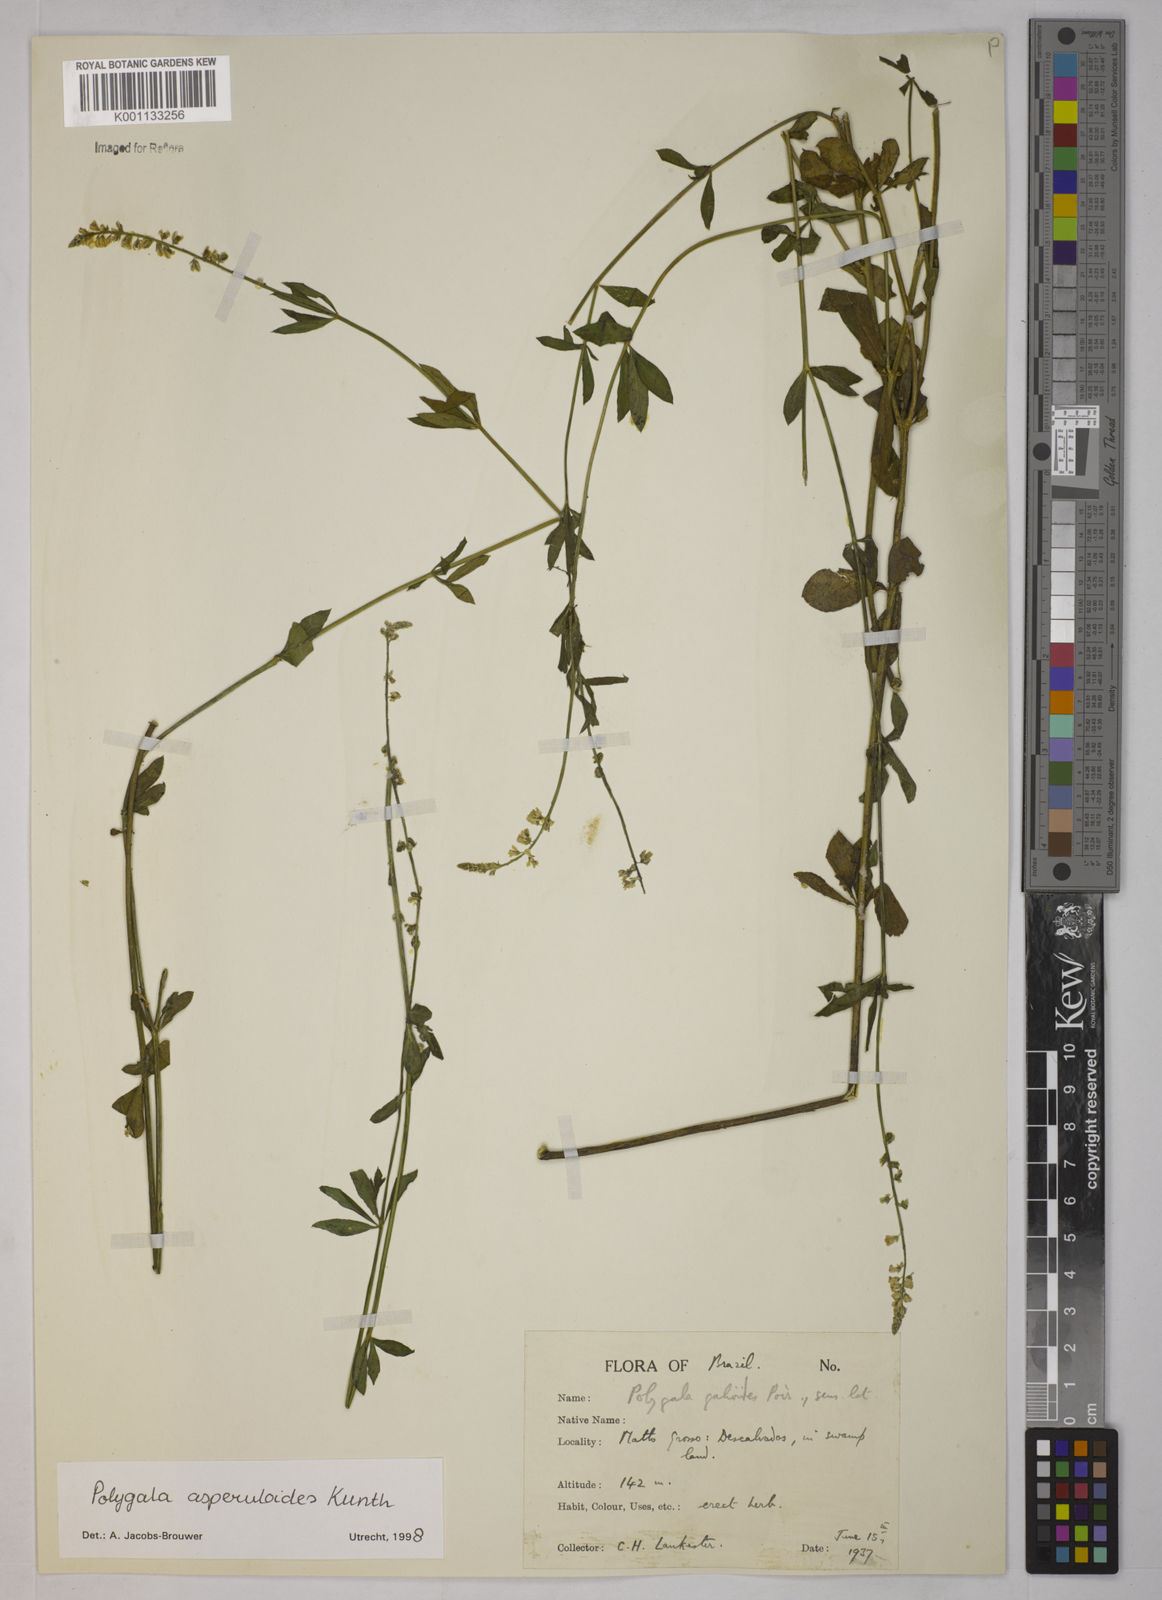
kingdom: Plantae
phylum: Tracheophyta
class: Magnoliopsida
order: Fabales
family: Polygalaceae
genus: Polygala
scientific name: Polygala asperuloides
